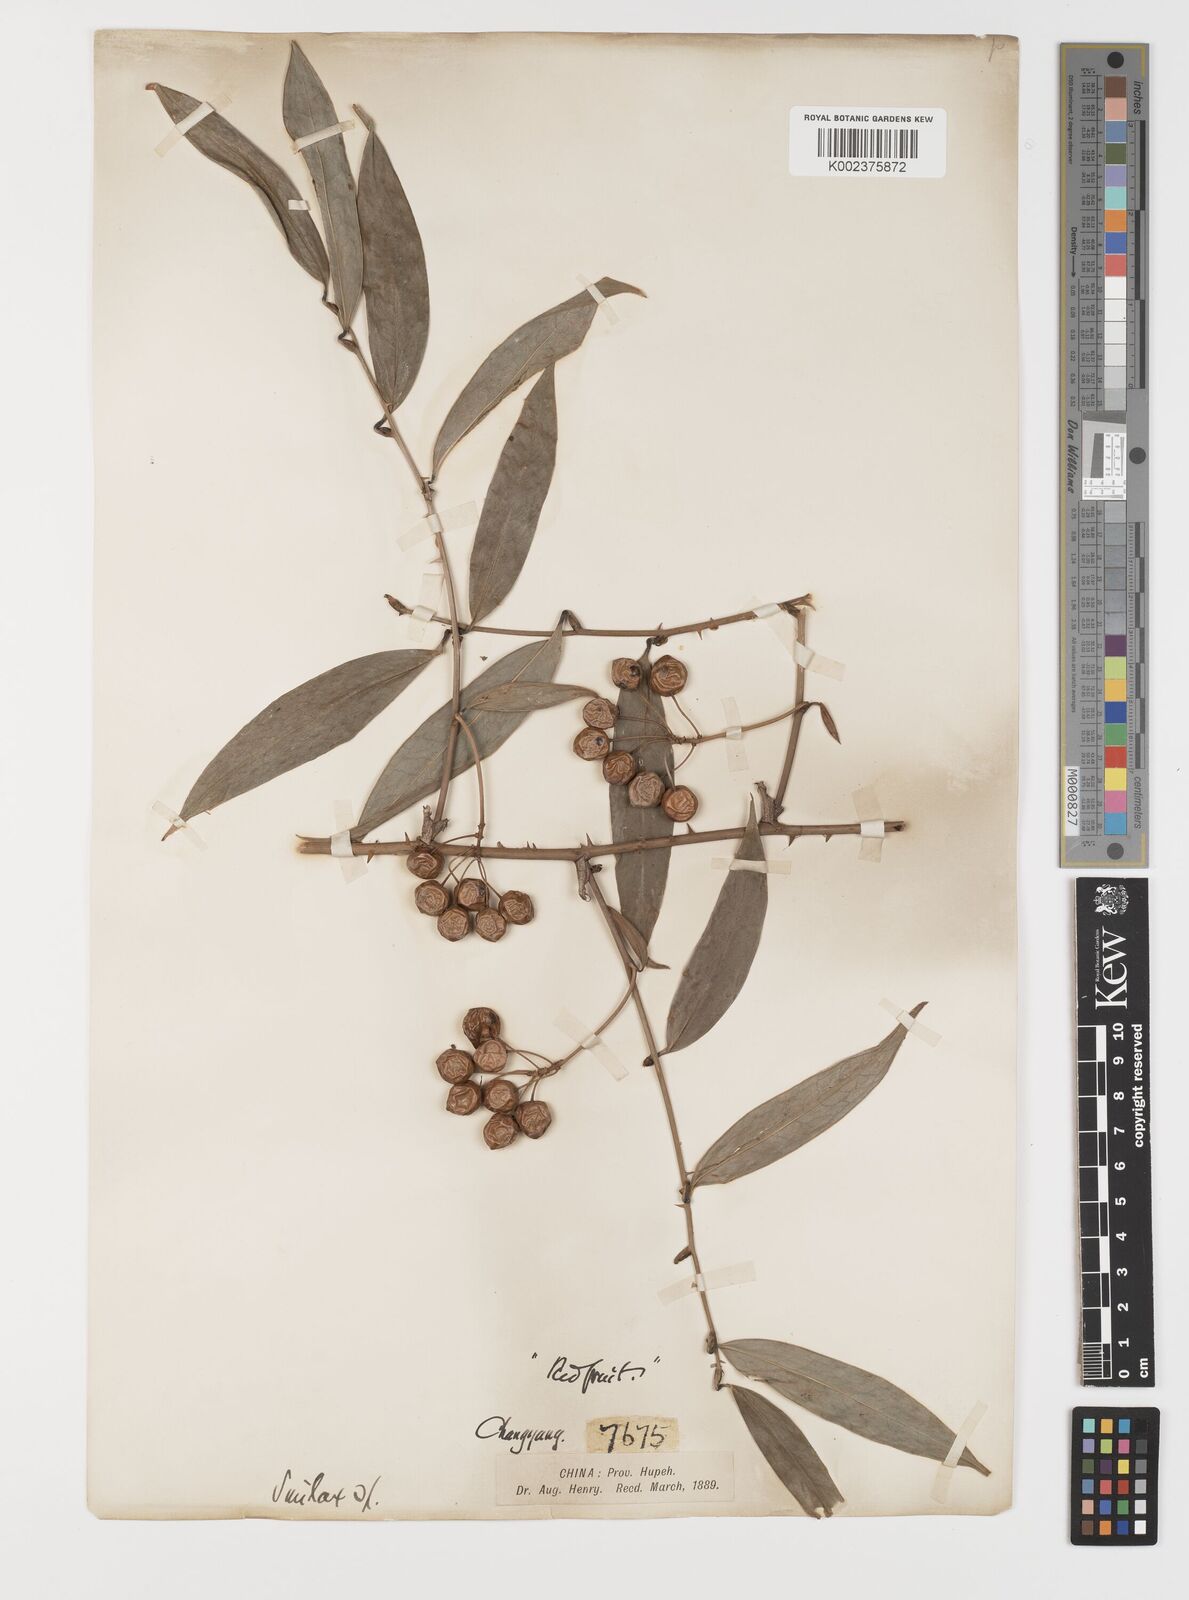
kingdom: Plantae
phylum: Tracheophyta
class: Liliopsida
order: Liliales
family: Smilacaceae
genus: Smilax
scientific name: Smilax megalantha
